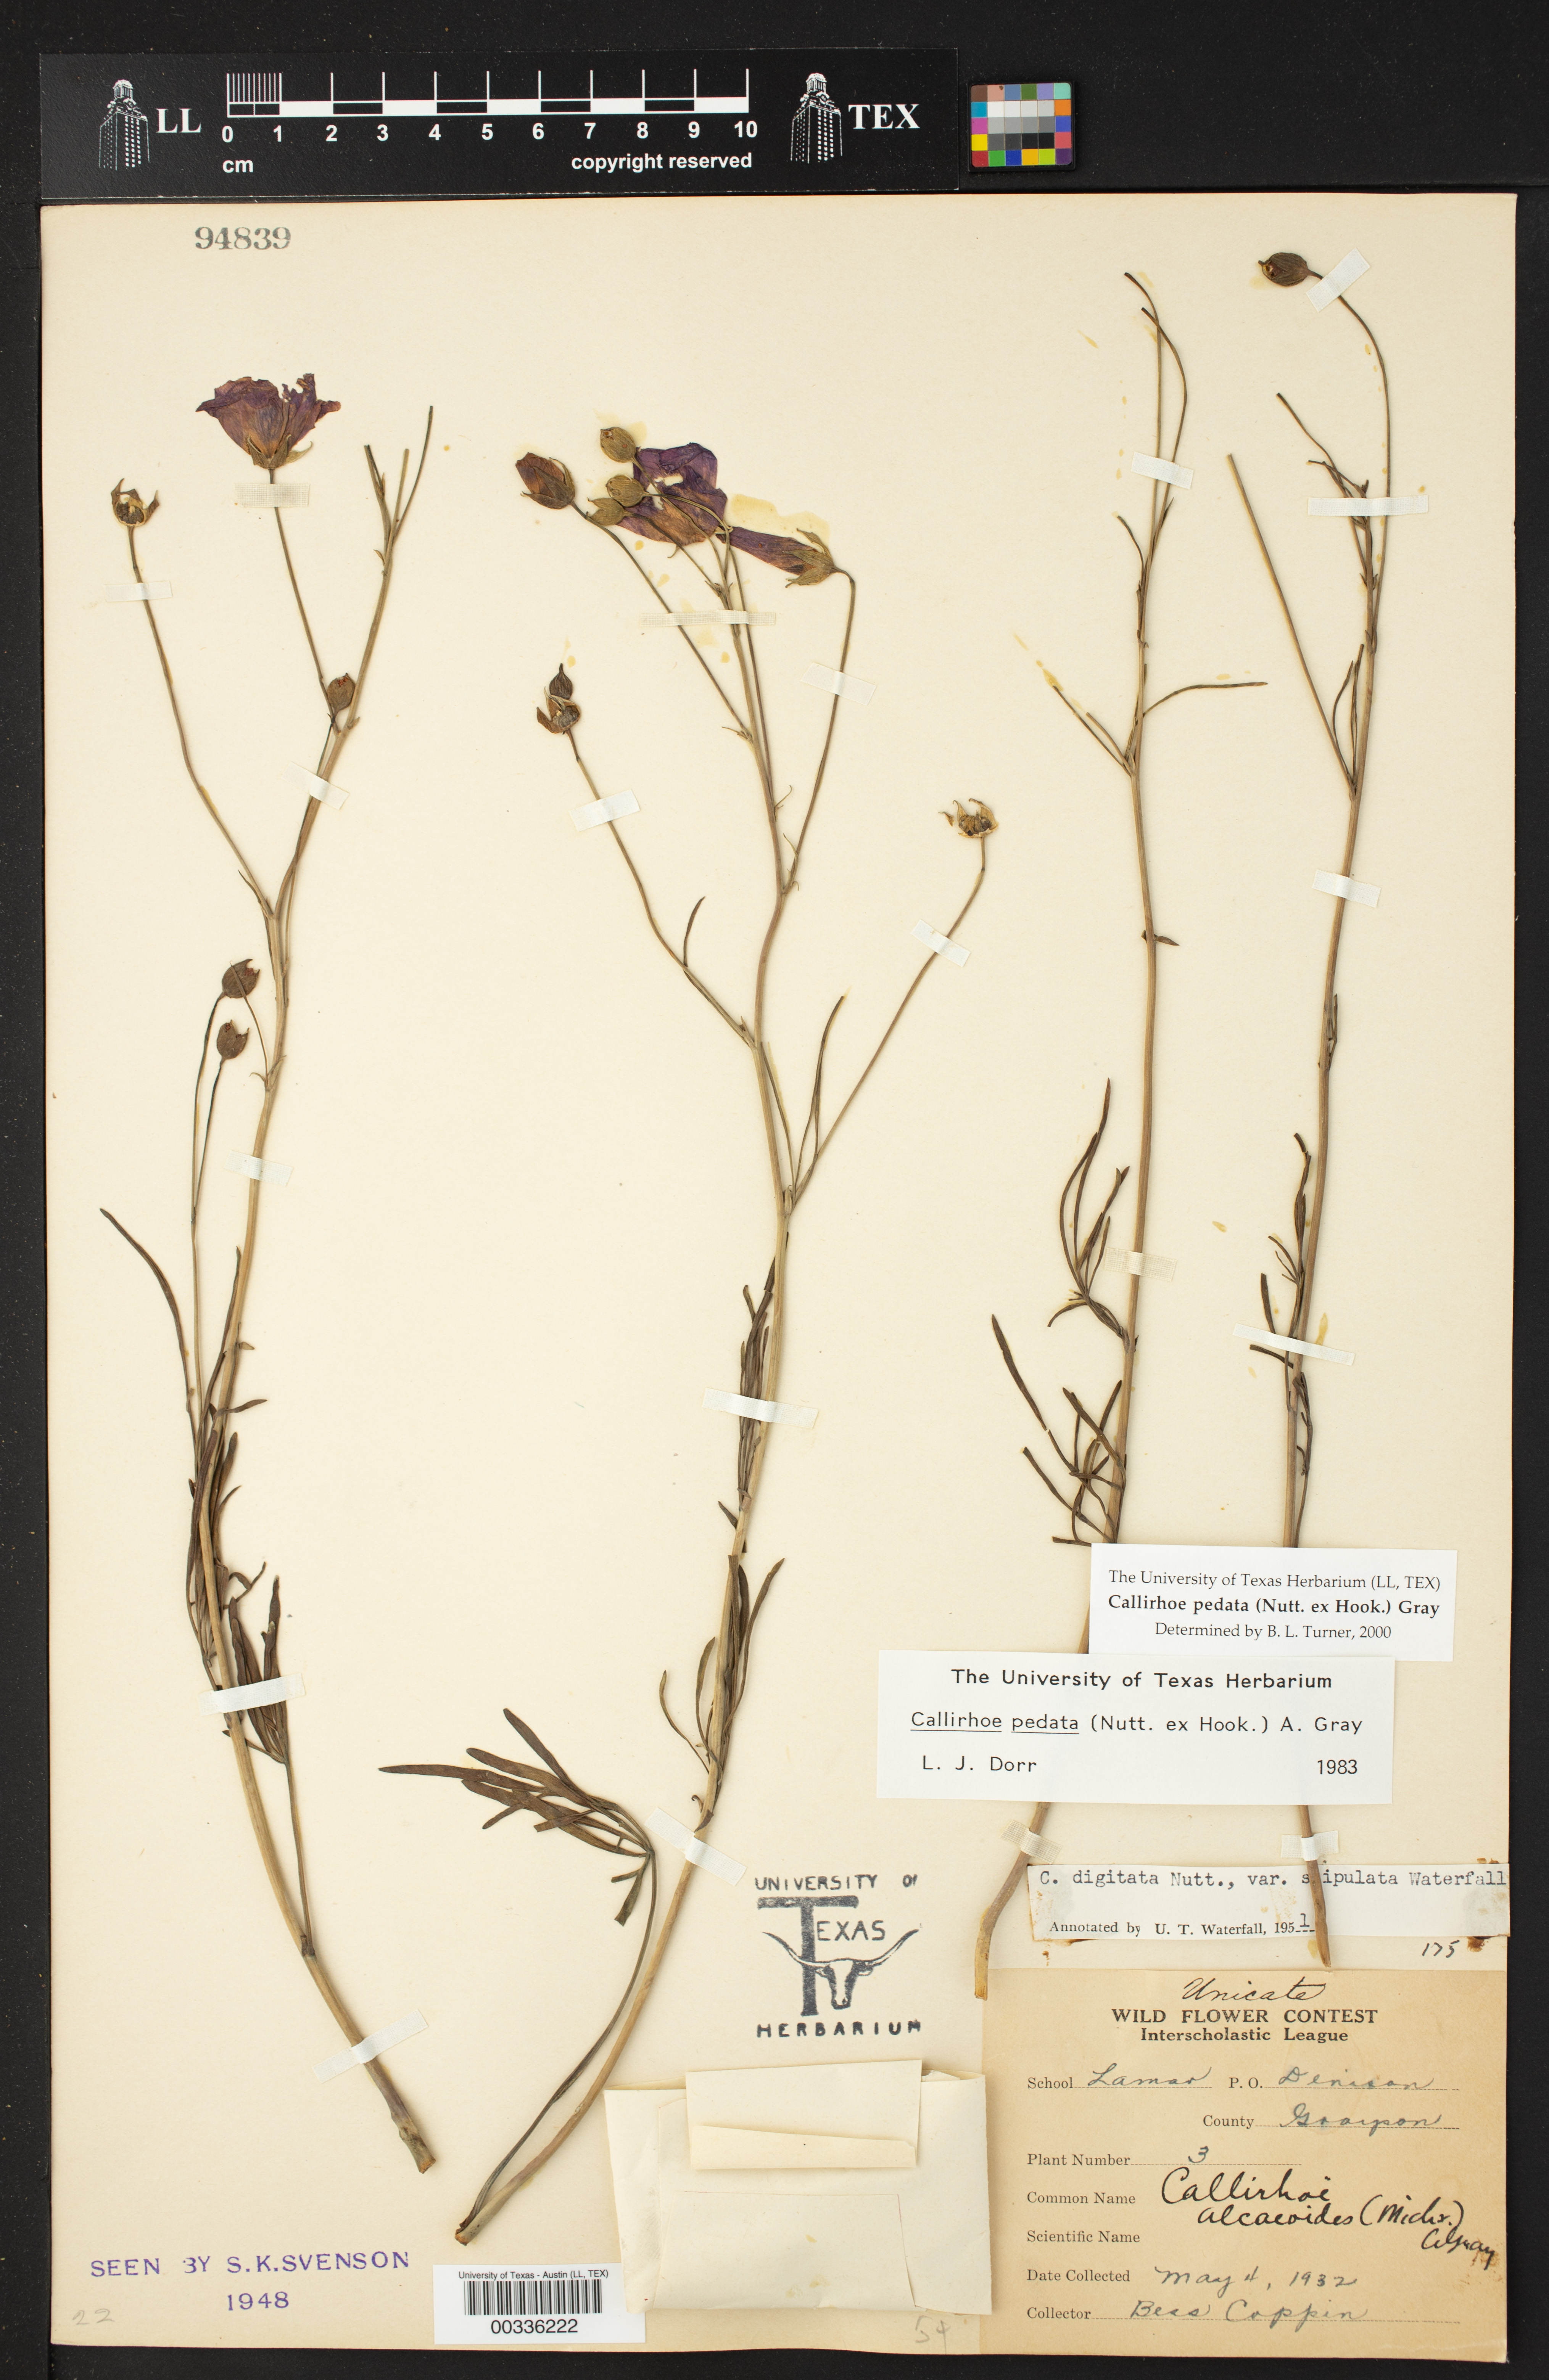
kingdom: Plantae
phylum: Tracheophyta
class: Magnoliopsida
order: Malvales
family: Malvaceae
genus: Callirhoe
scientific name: Callirhoe pedata
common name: Finger poppy-mallow
